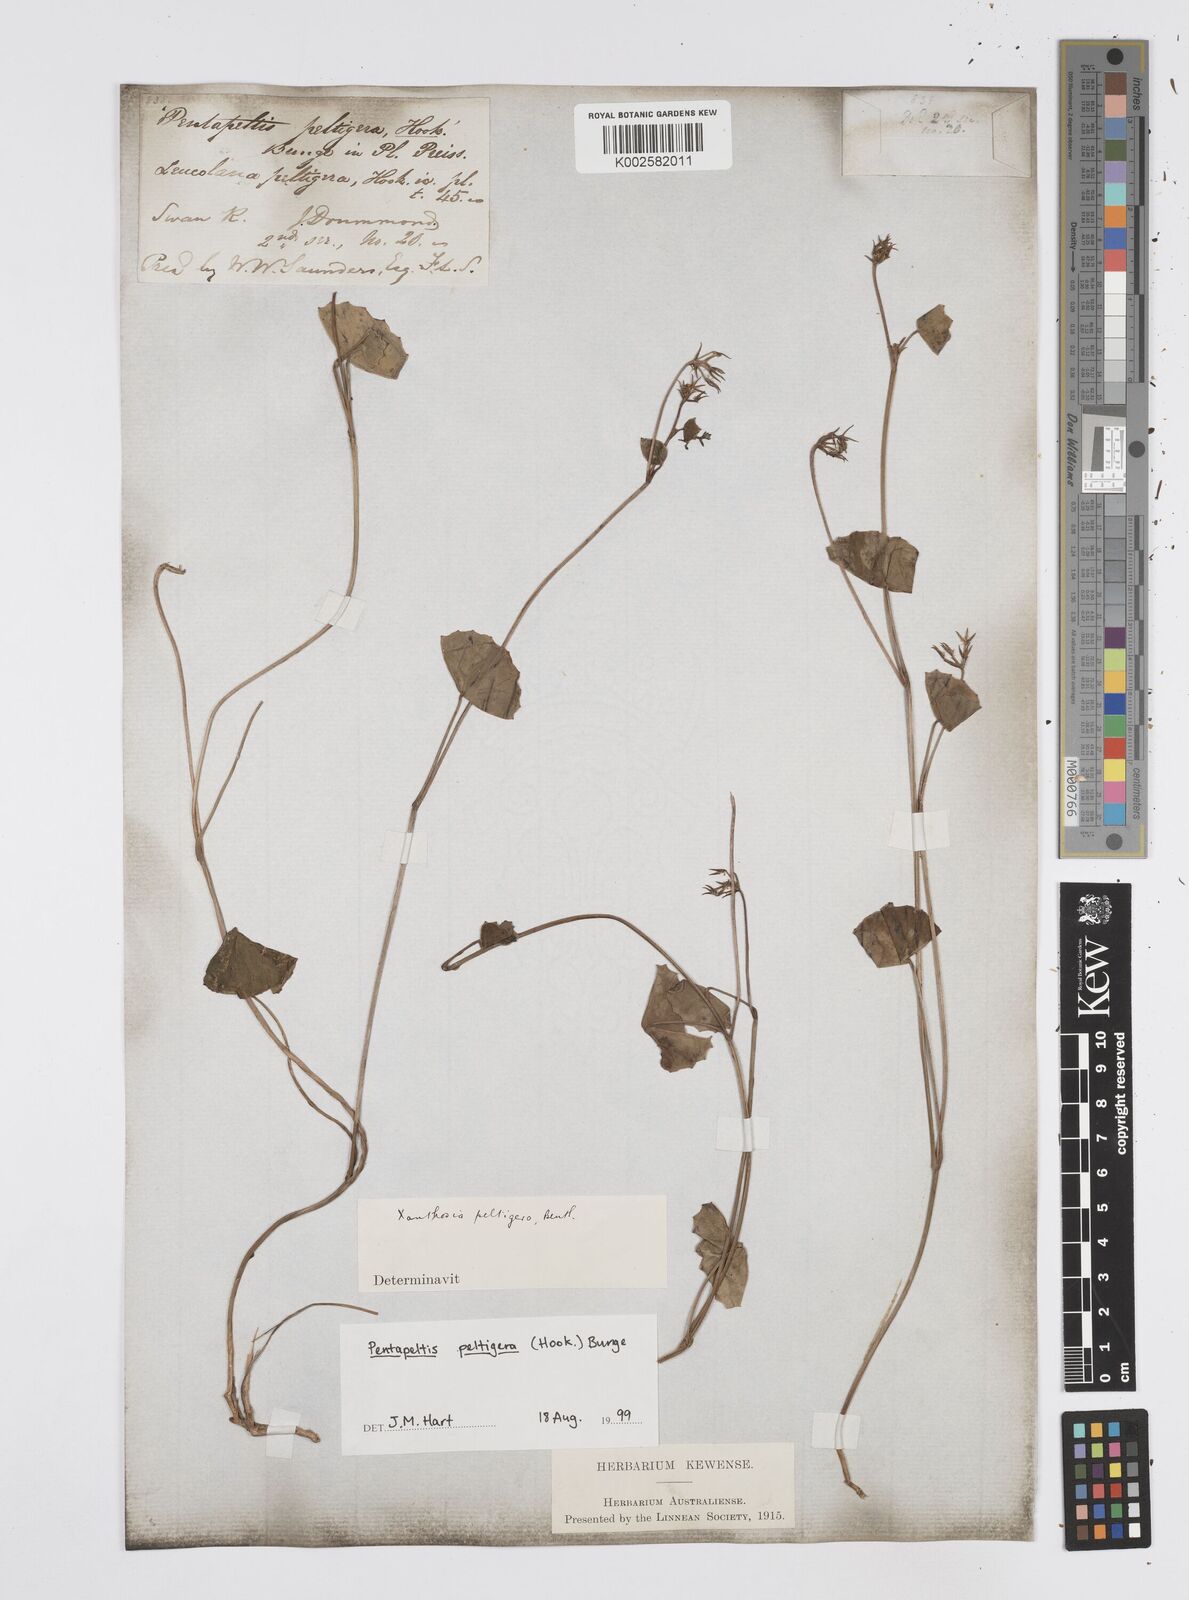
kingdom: Plantae
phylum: Tracheophyta
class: Magnoliopsida
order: Apiales
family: Apiaceae
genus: Pentapeltis
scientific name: Pentapeltis peltigera
